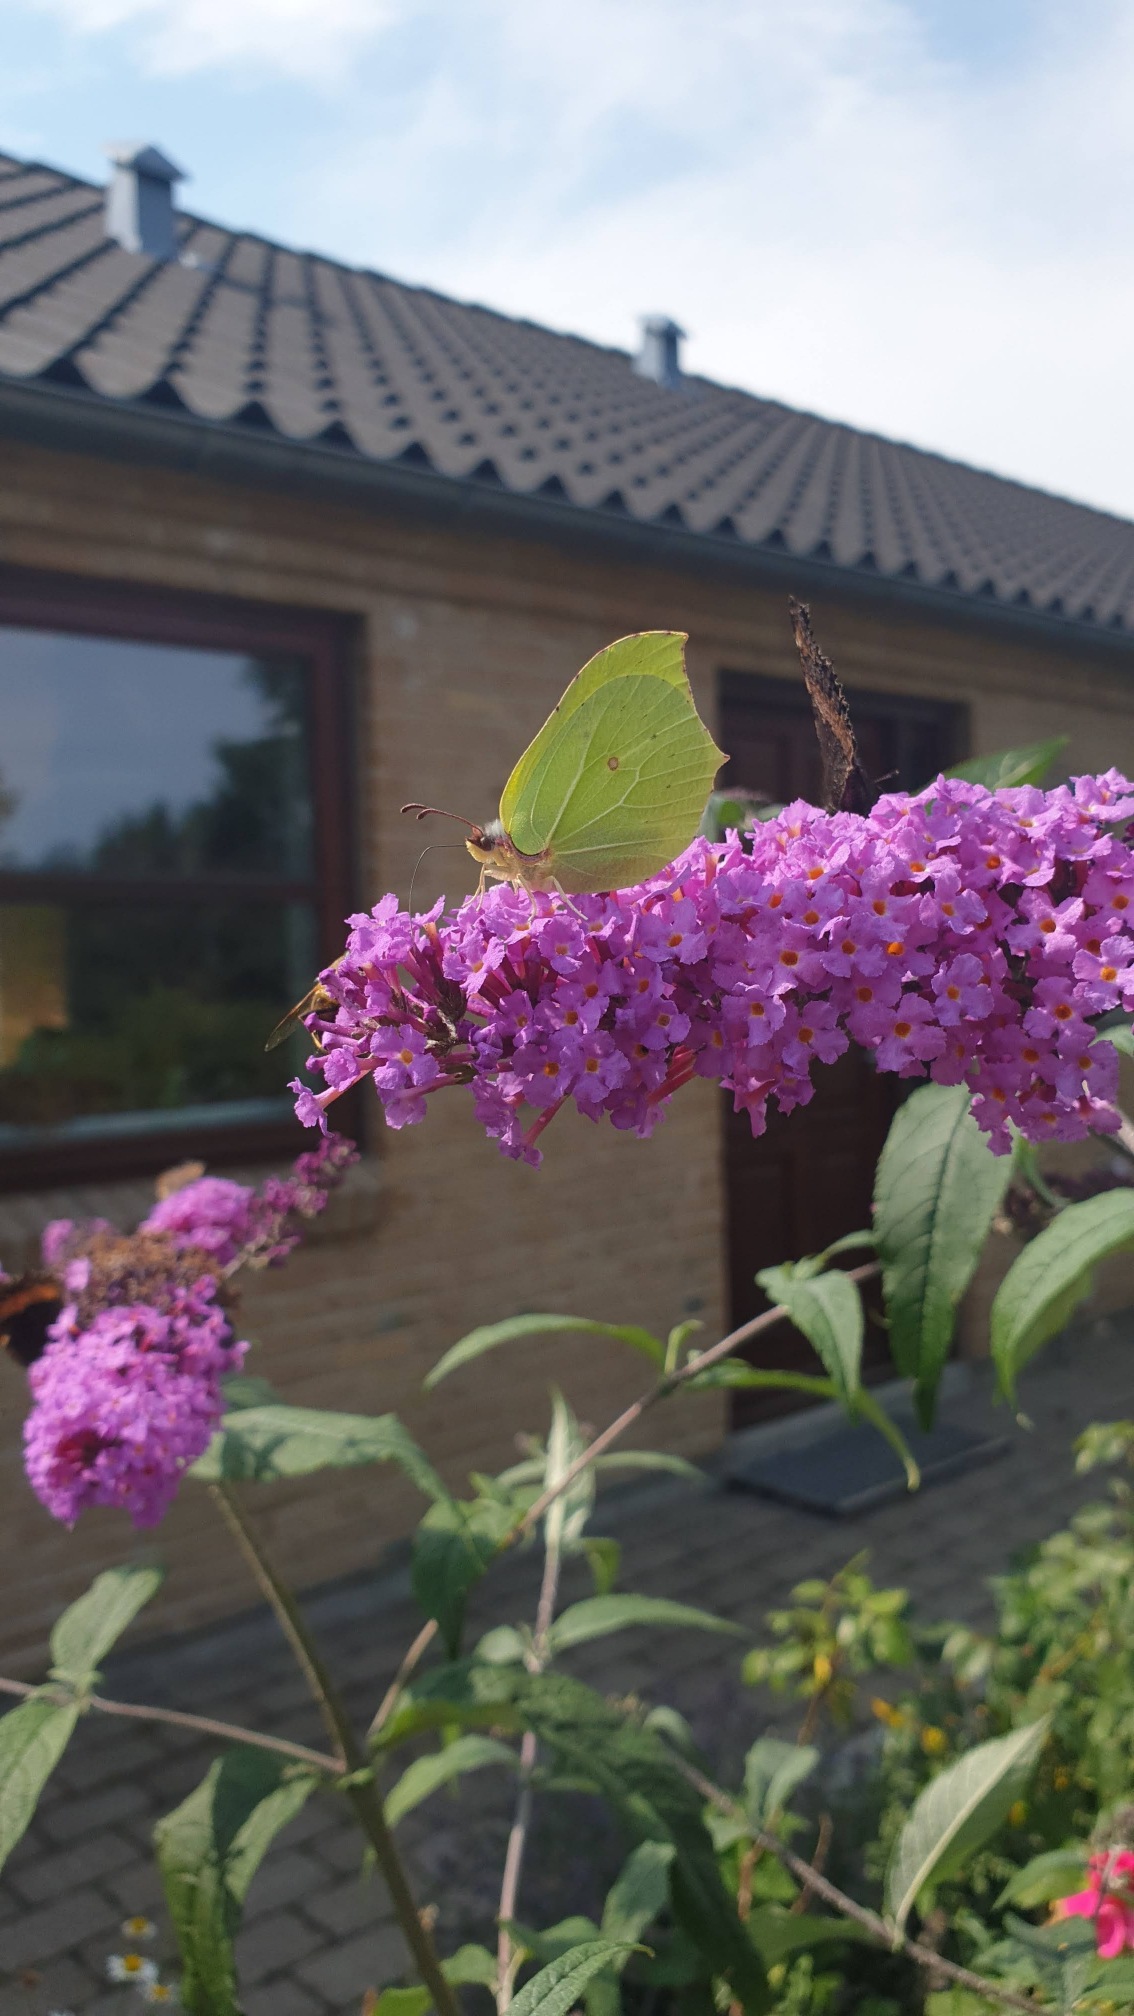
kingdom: Animalia
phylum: Arthropoda
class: Insecta
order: Lepidoptera
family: Pieridae
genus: Gonepteryx
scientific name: Gonepteryx rhamni
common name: Citronsommerfugl
